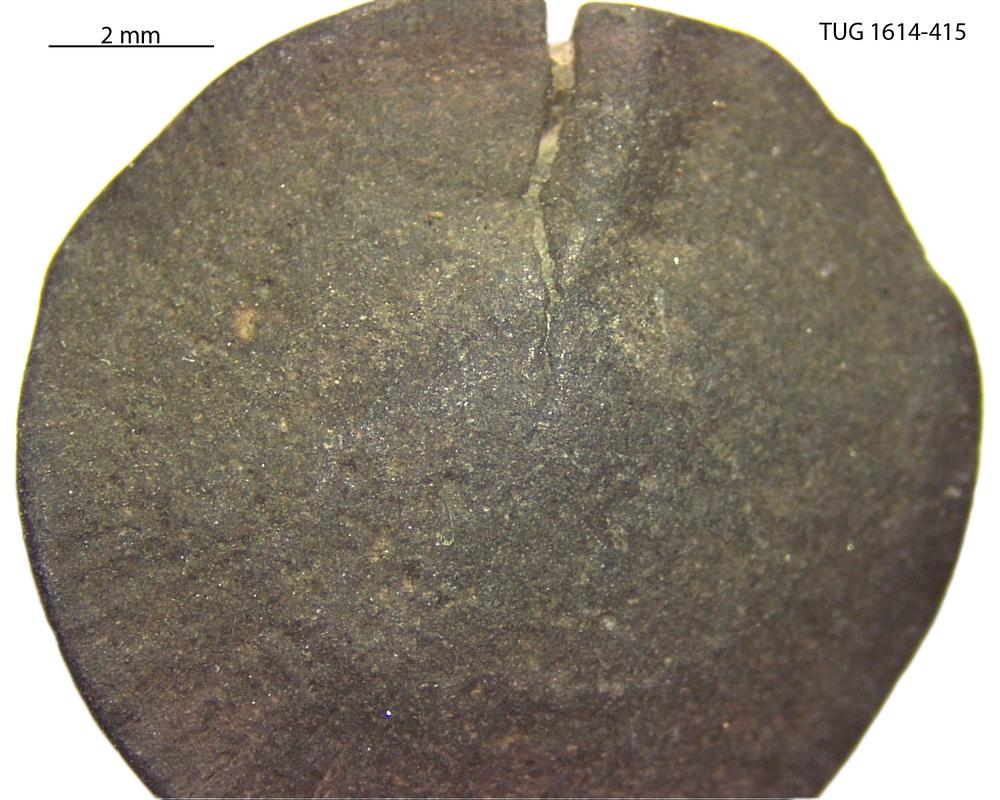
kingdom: Animalia
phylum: Mollusca
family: Scenellidae
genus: Scenella
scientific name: Scenella
